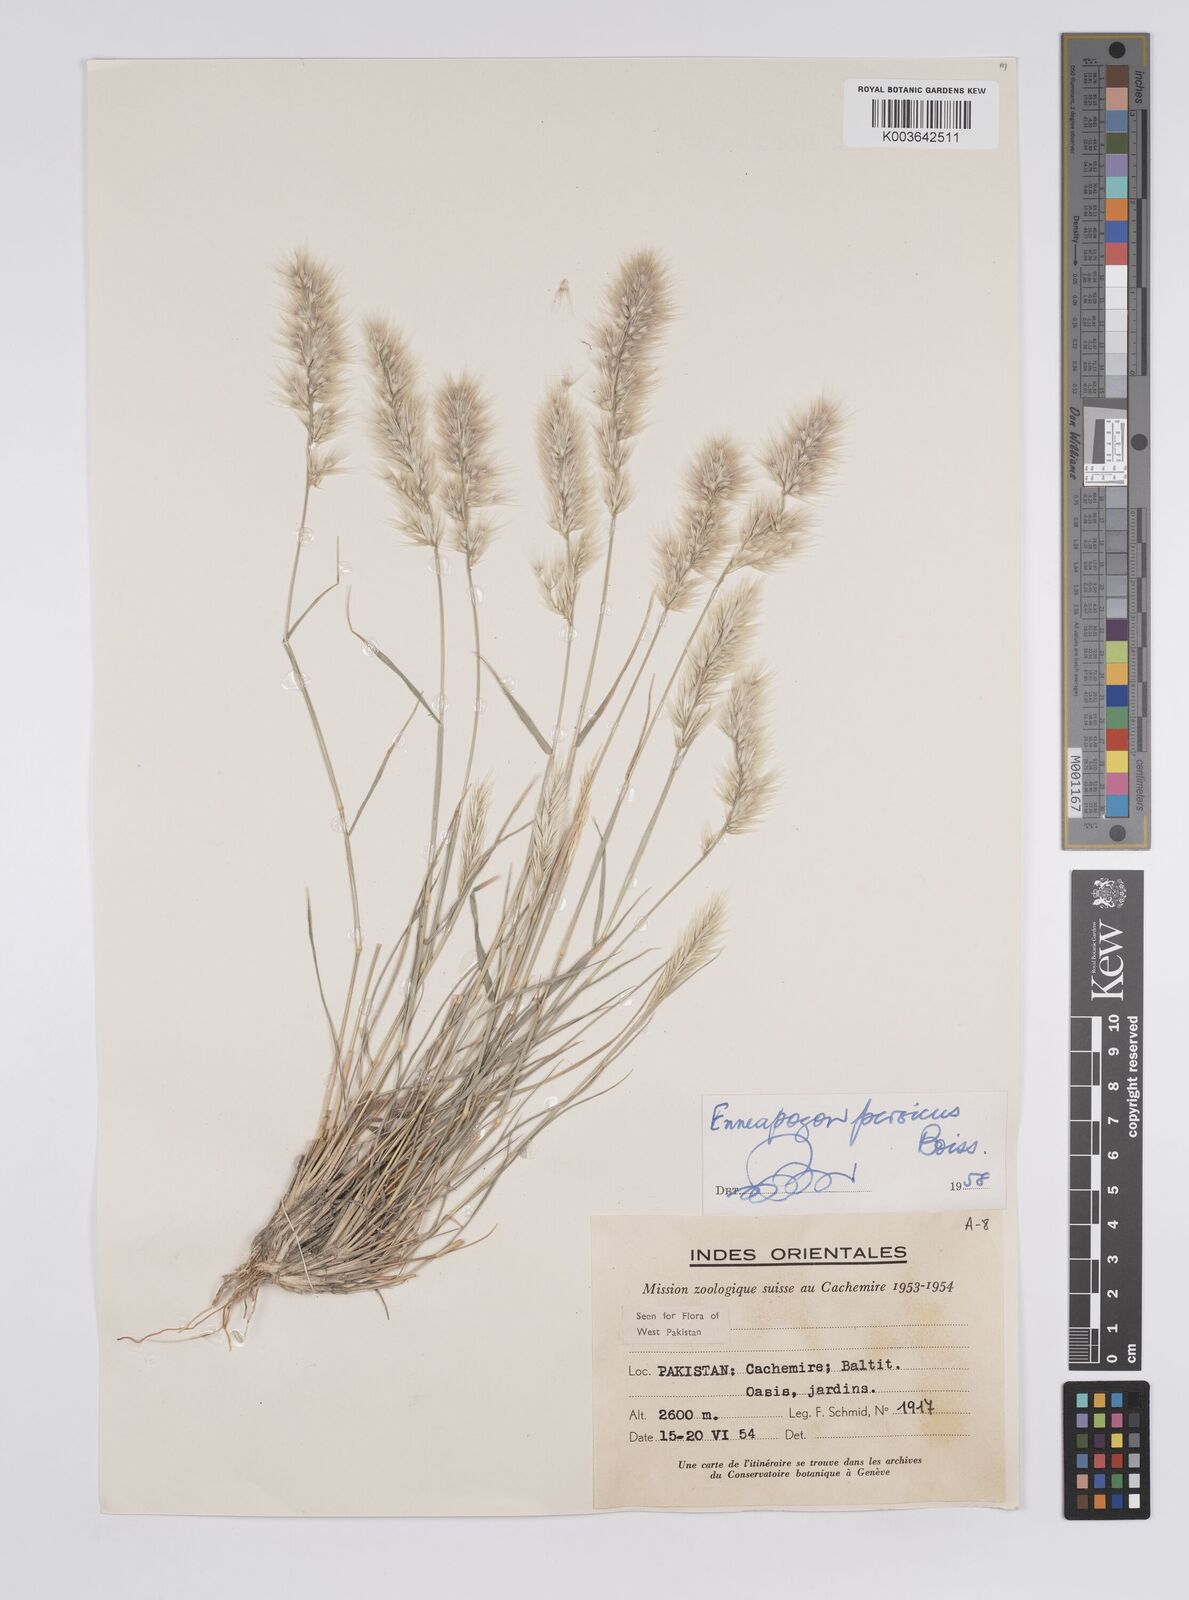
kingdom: Plantae
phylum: Tracheophyta
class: Liliopsida
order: Poales
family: Poaceae
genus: Enneapogon
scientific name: Enneapogon persicus
